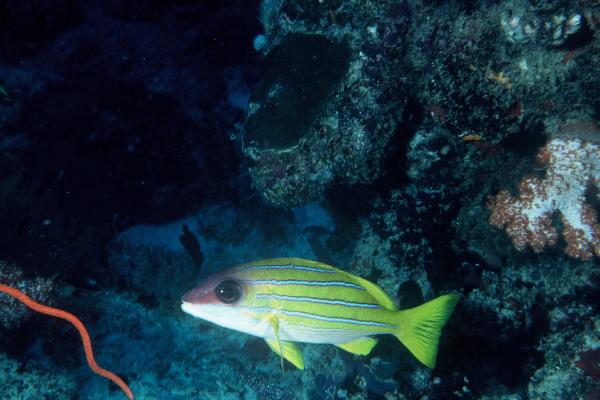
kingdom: Animalia
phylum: Chordata
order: Perciformes
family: Lutjanidae
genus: Lutjanus
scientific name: Lutjanus kasmira
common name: Common bluestripe snapper
